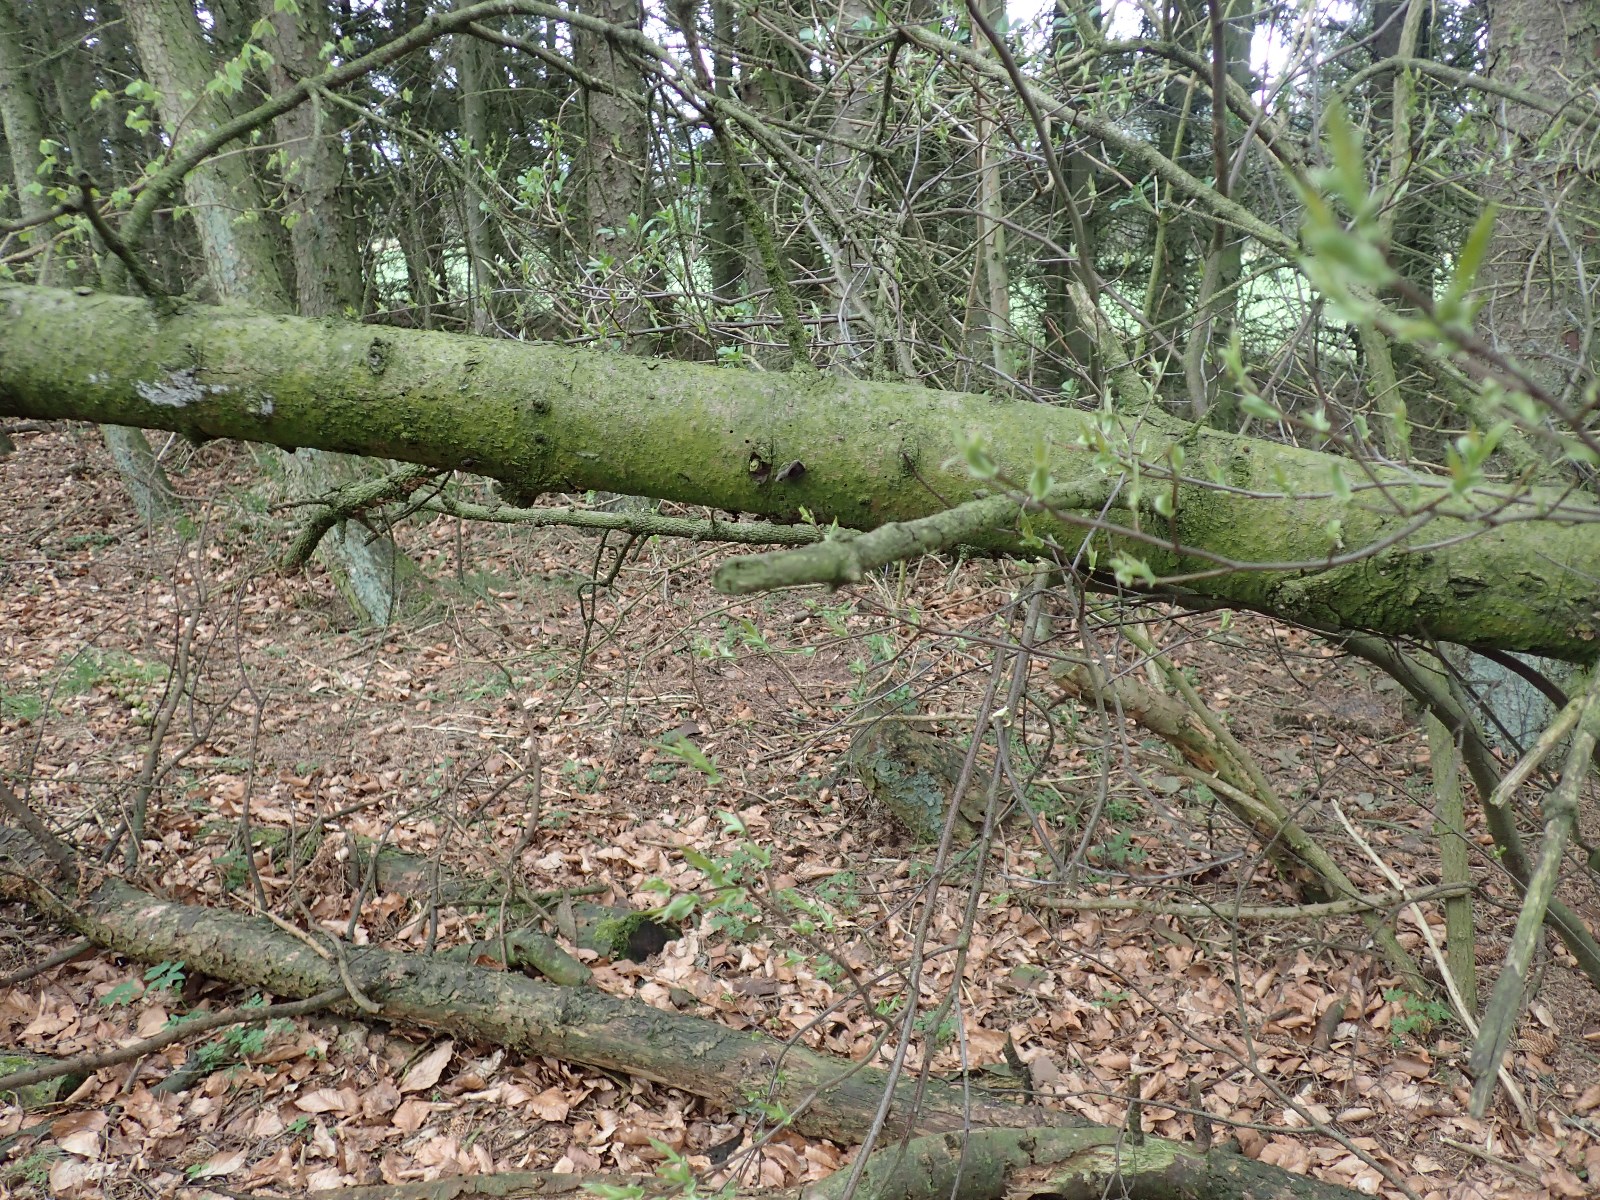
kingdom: Fungi
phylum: Basidiomycota
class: Agaricomycetes
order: Auriculariales
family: Auriculariaceae
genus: Auricularia
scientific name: Auricularia auricula-judae
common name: almindelig judasøre
